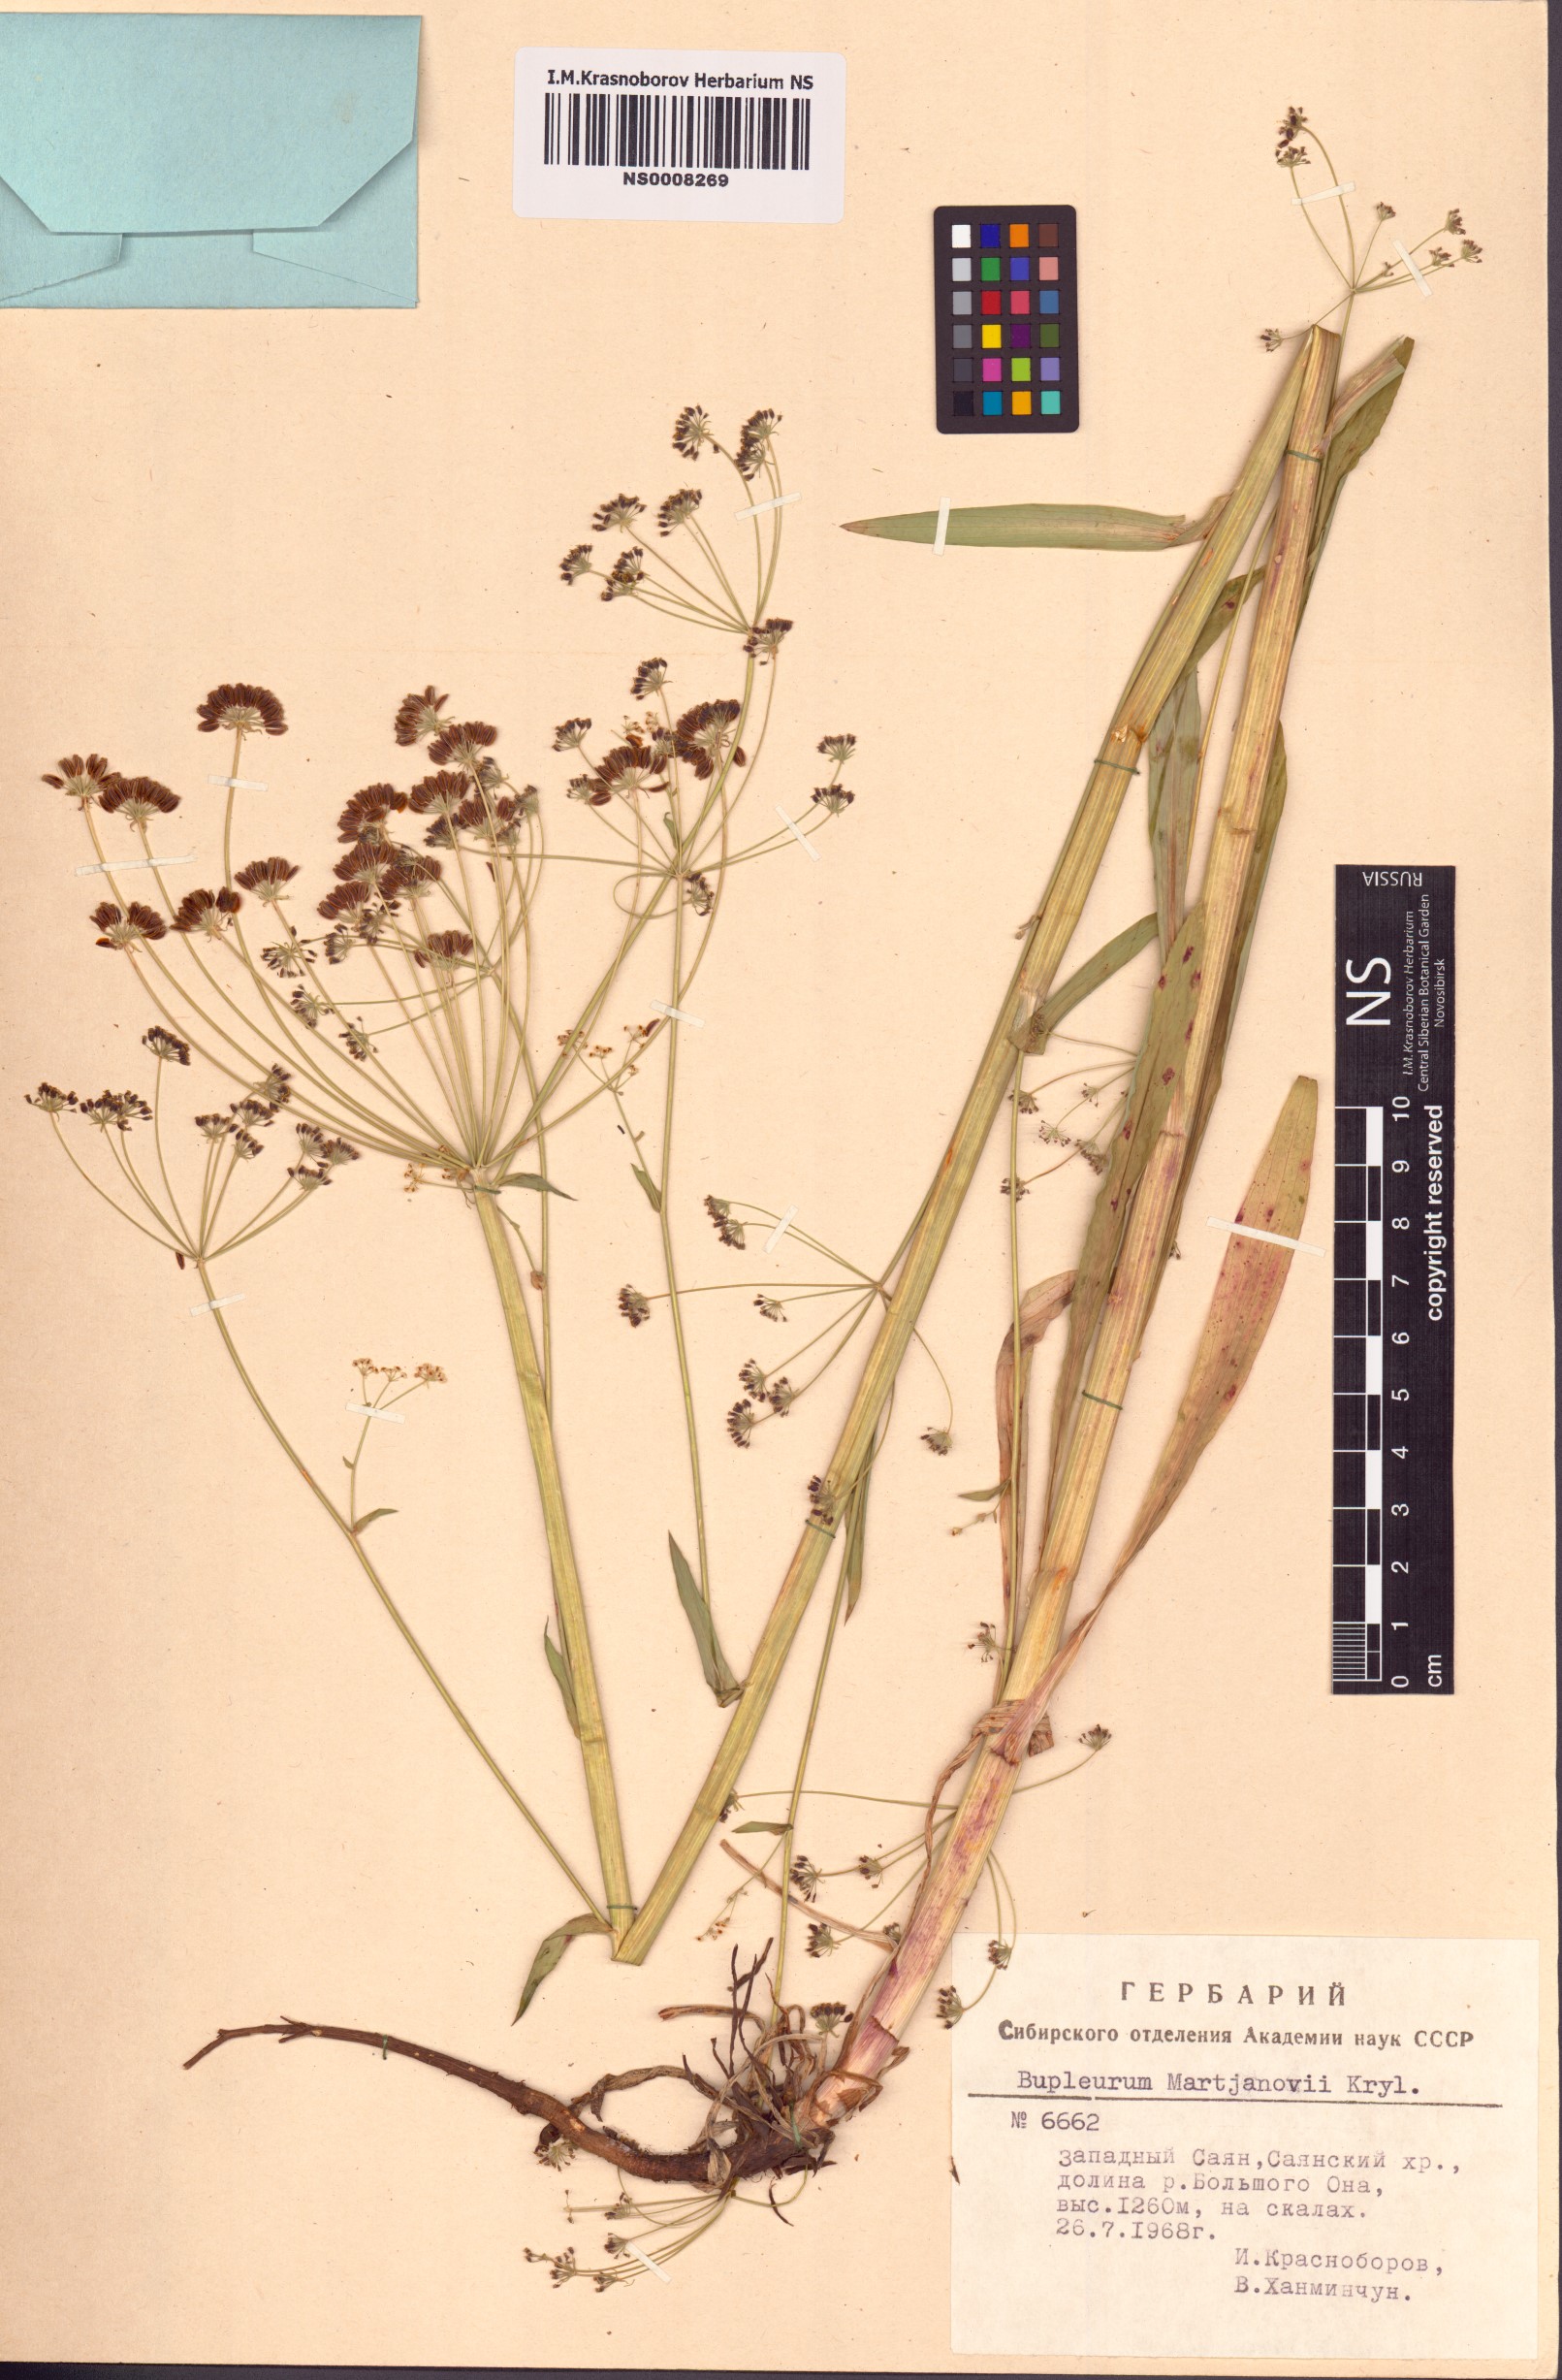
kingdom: Plantae
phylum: Tracheophyta
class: Magnoliopsida
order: Apiales
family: Apiaceae
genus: Bupleurum
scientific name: Bupleurum martjanovii
